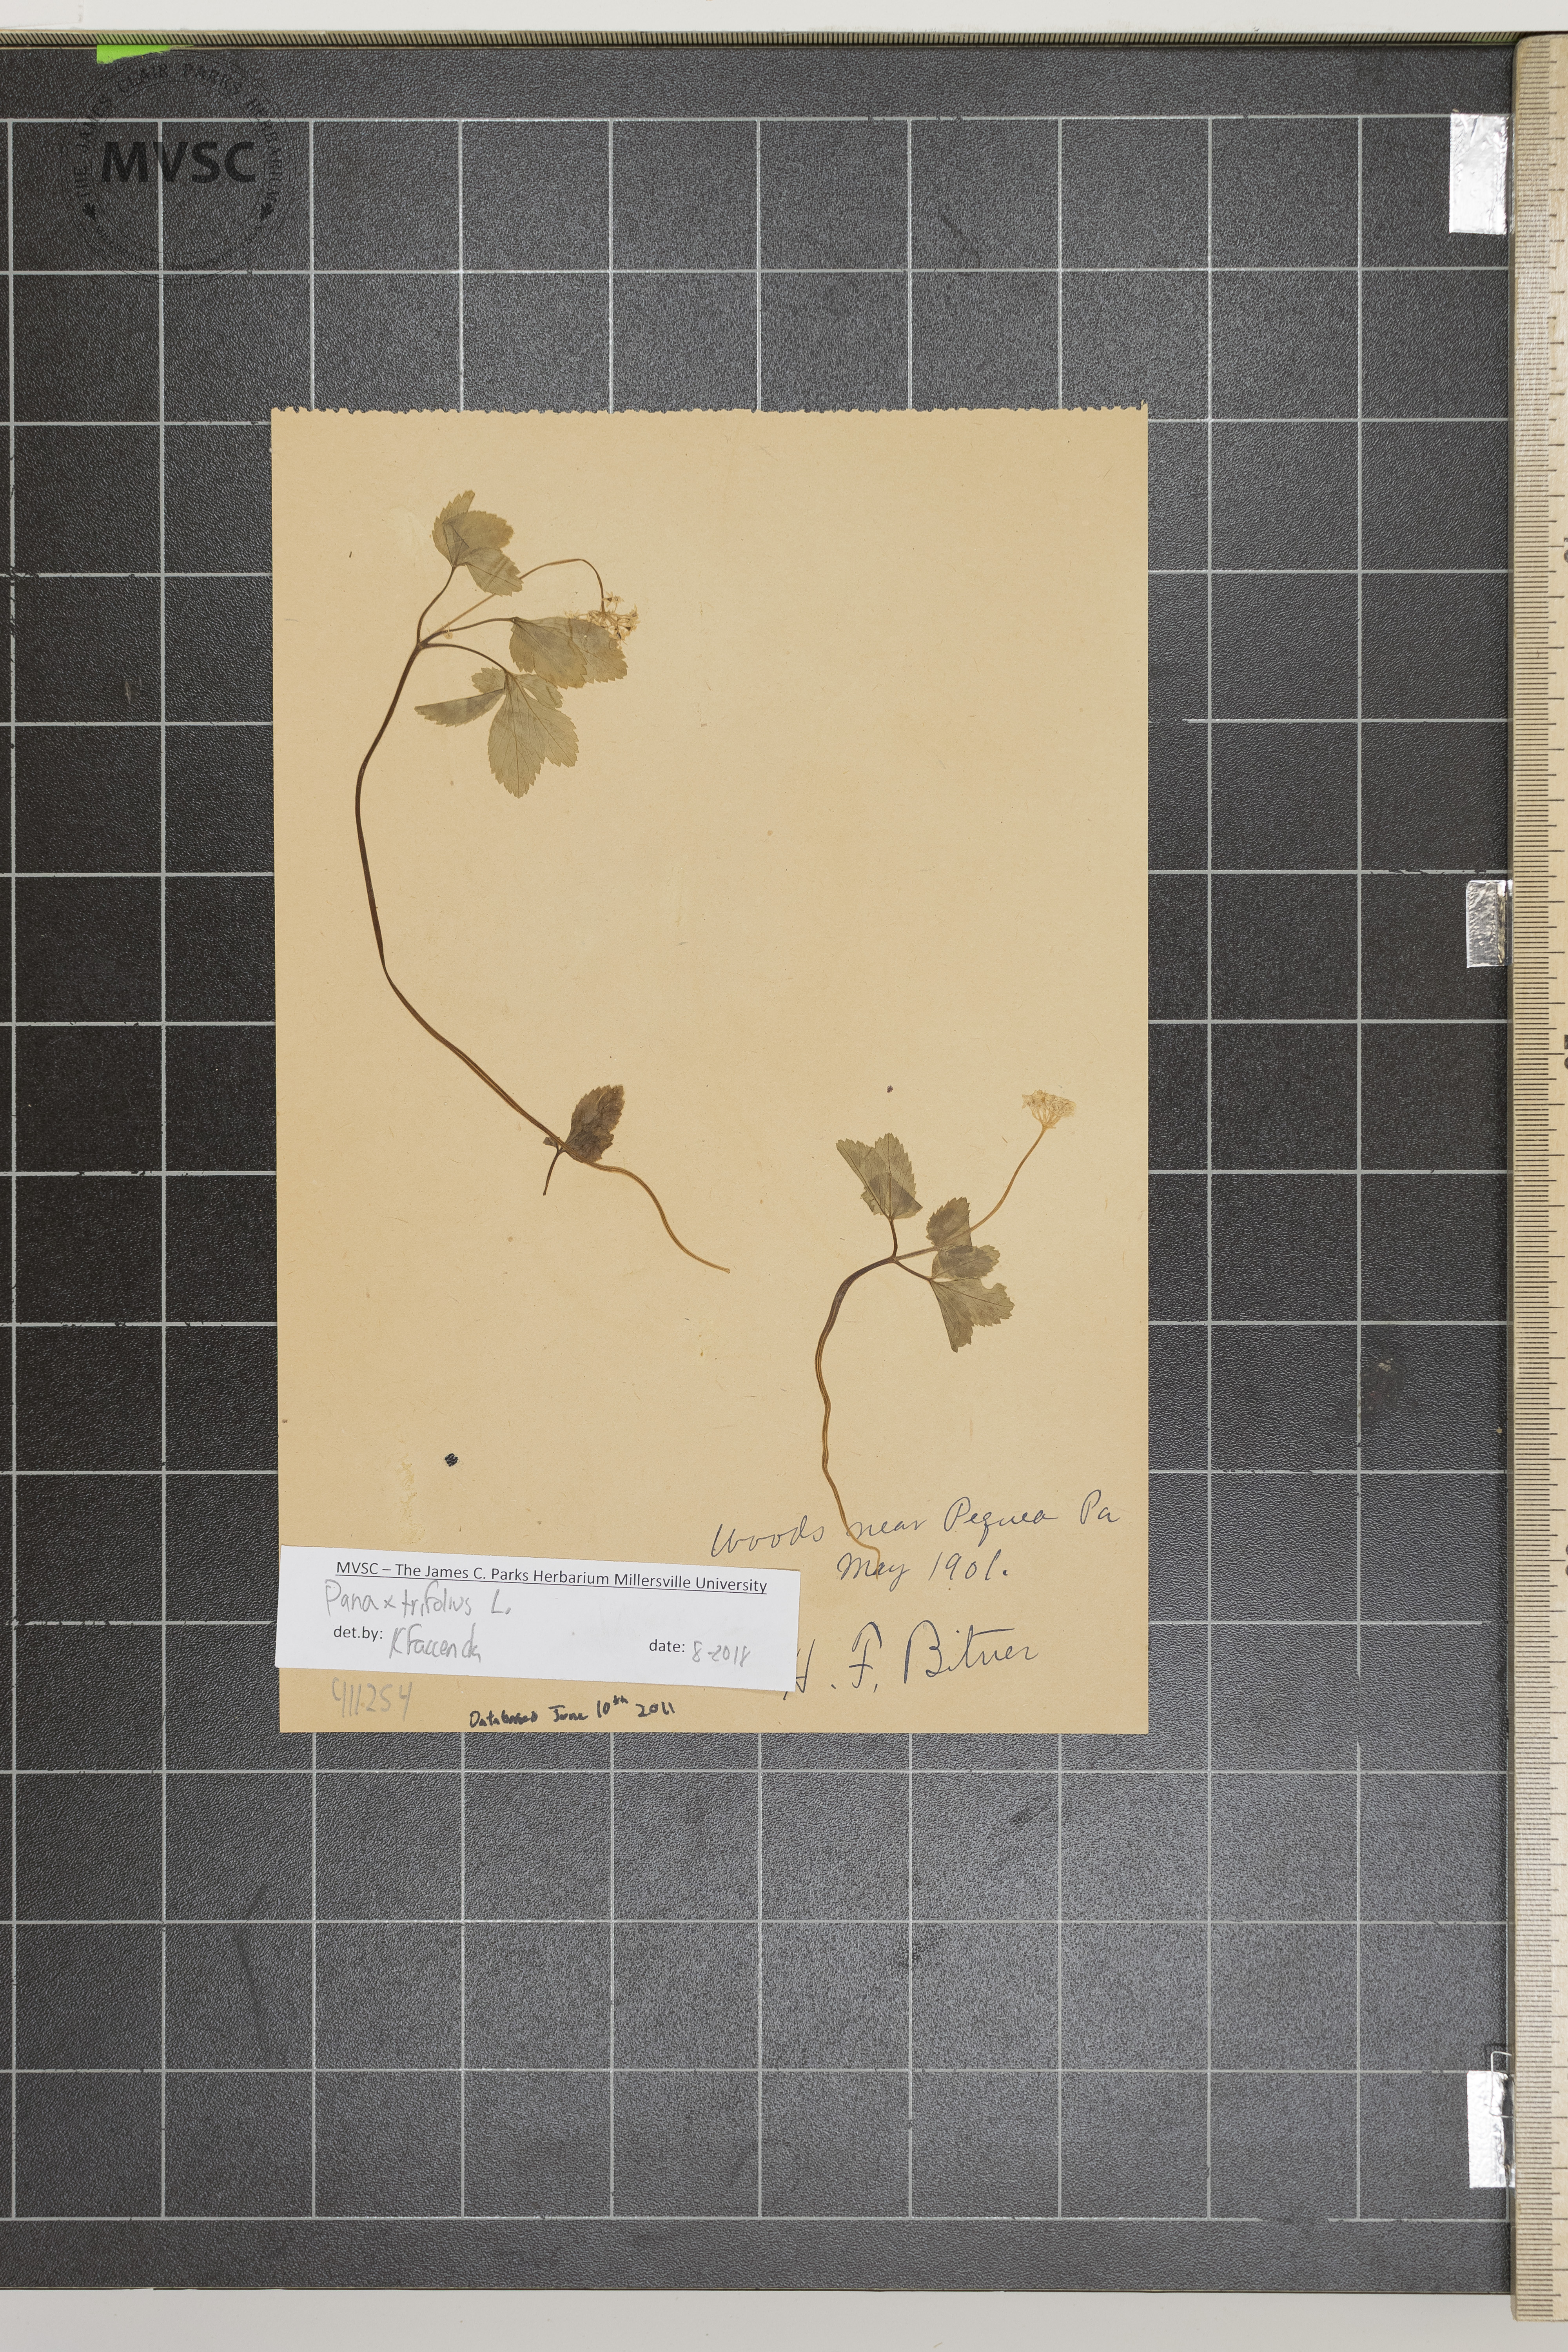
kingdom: Plantae
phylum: Tracheophyta
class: Magnoliopsida
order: Apiales
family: Araliaceae
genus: Panax
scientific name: Panax trifolius
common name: Dwarf ginseng
